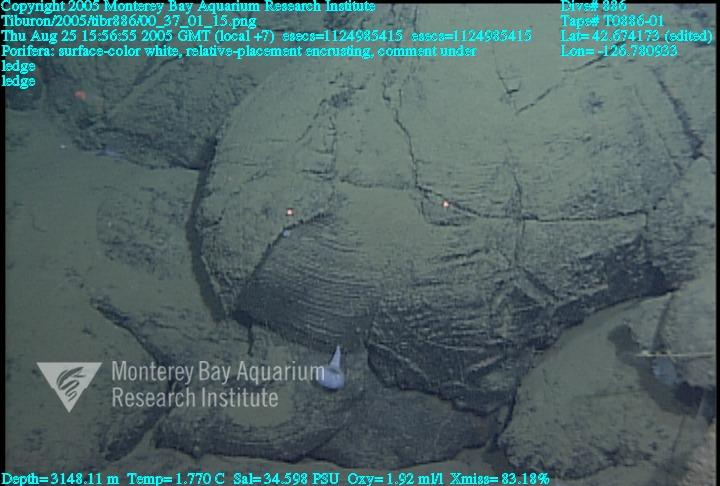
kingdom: Animalia
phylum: Porifera
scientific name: Porifera
